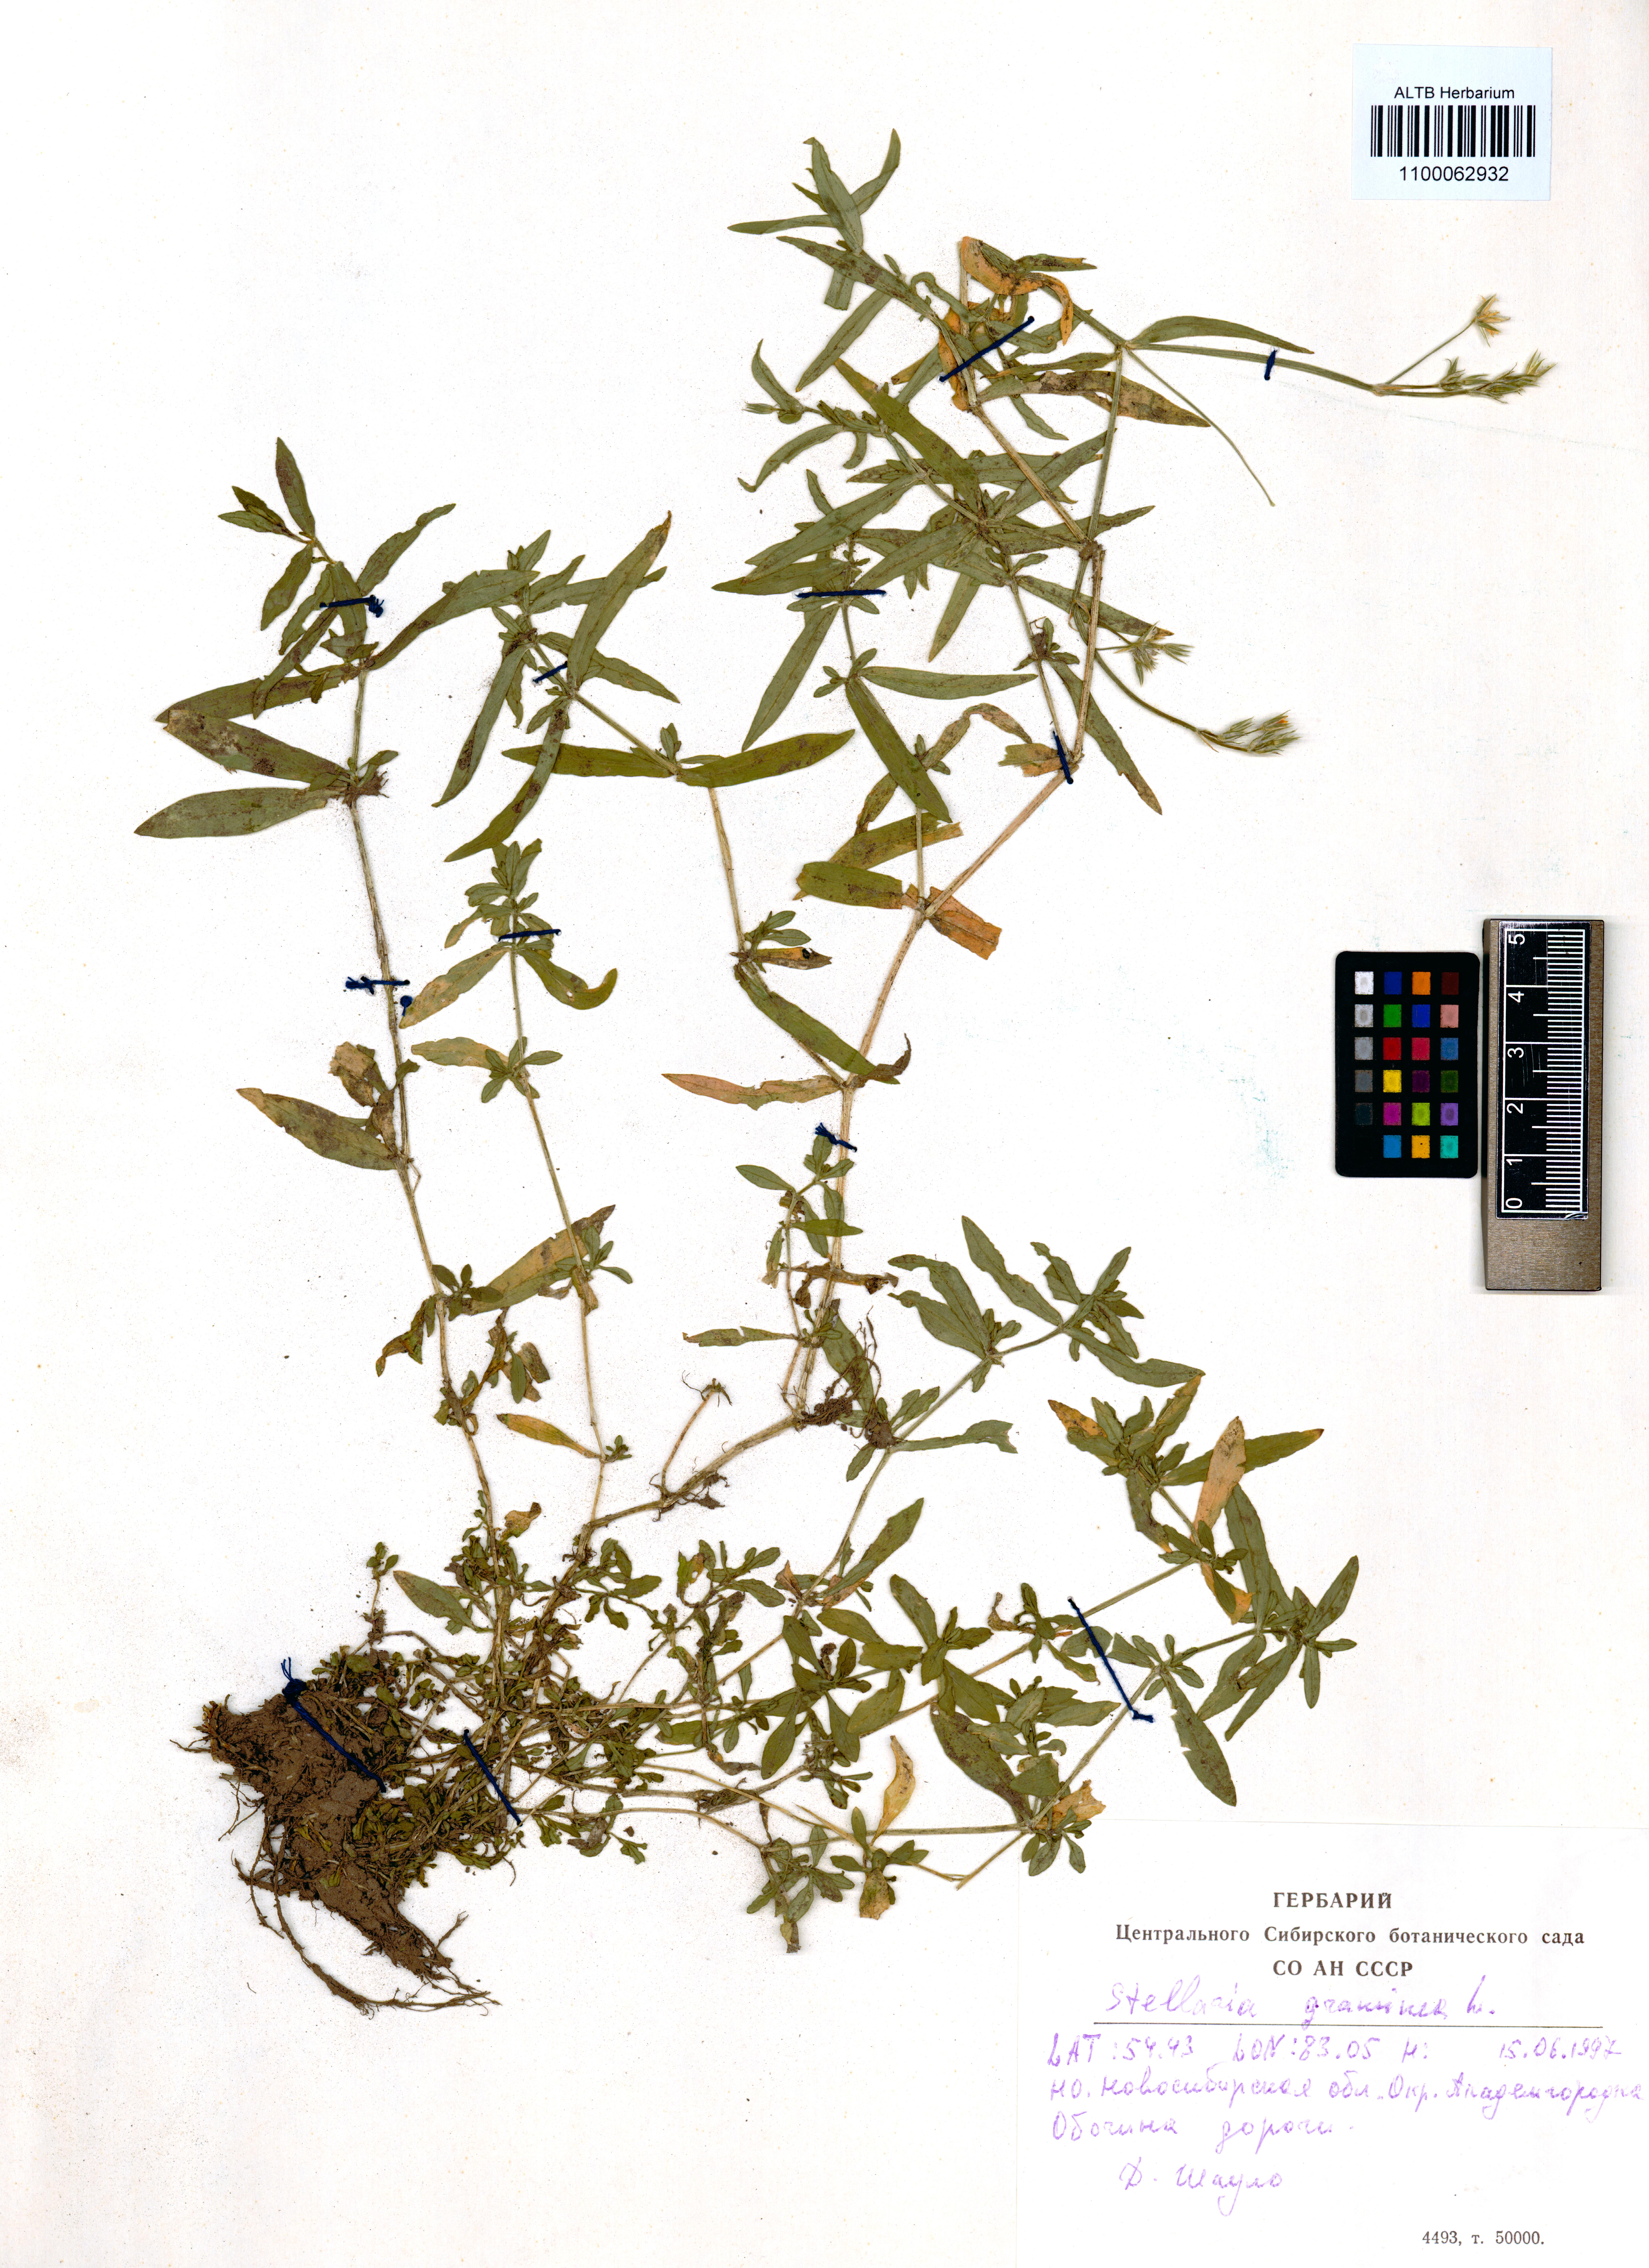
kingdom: Plantae
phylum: Tracheophyta
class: Magnoliopsida
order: Caryophyllales
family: Caryophyllaceae
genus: Stellaria
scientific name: Stellaria graminea
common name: Grass-like starwort
